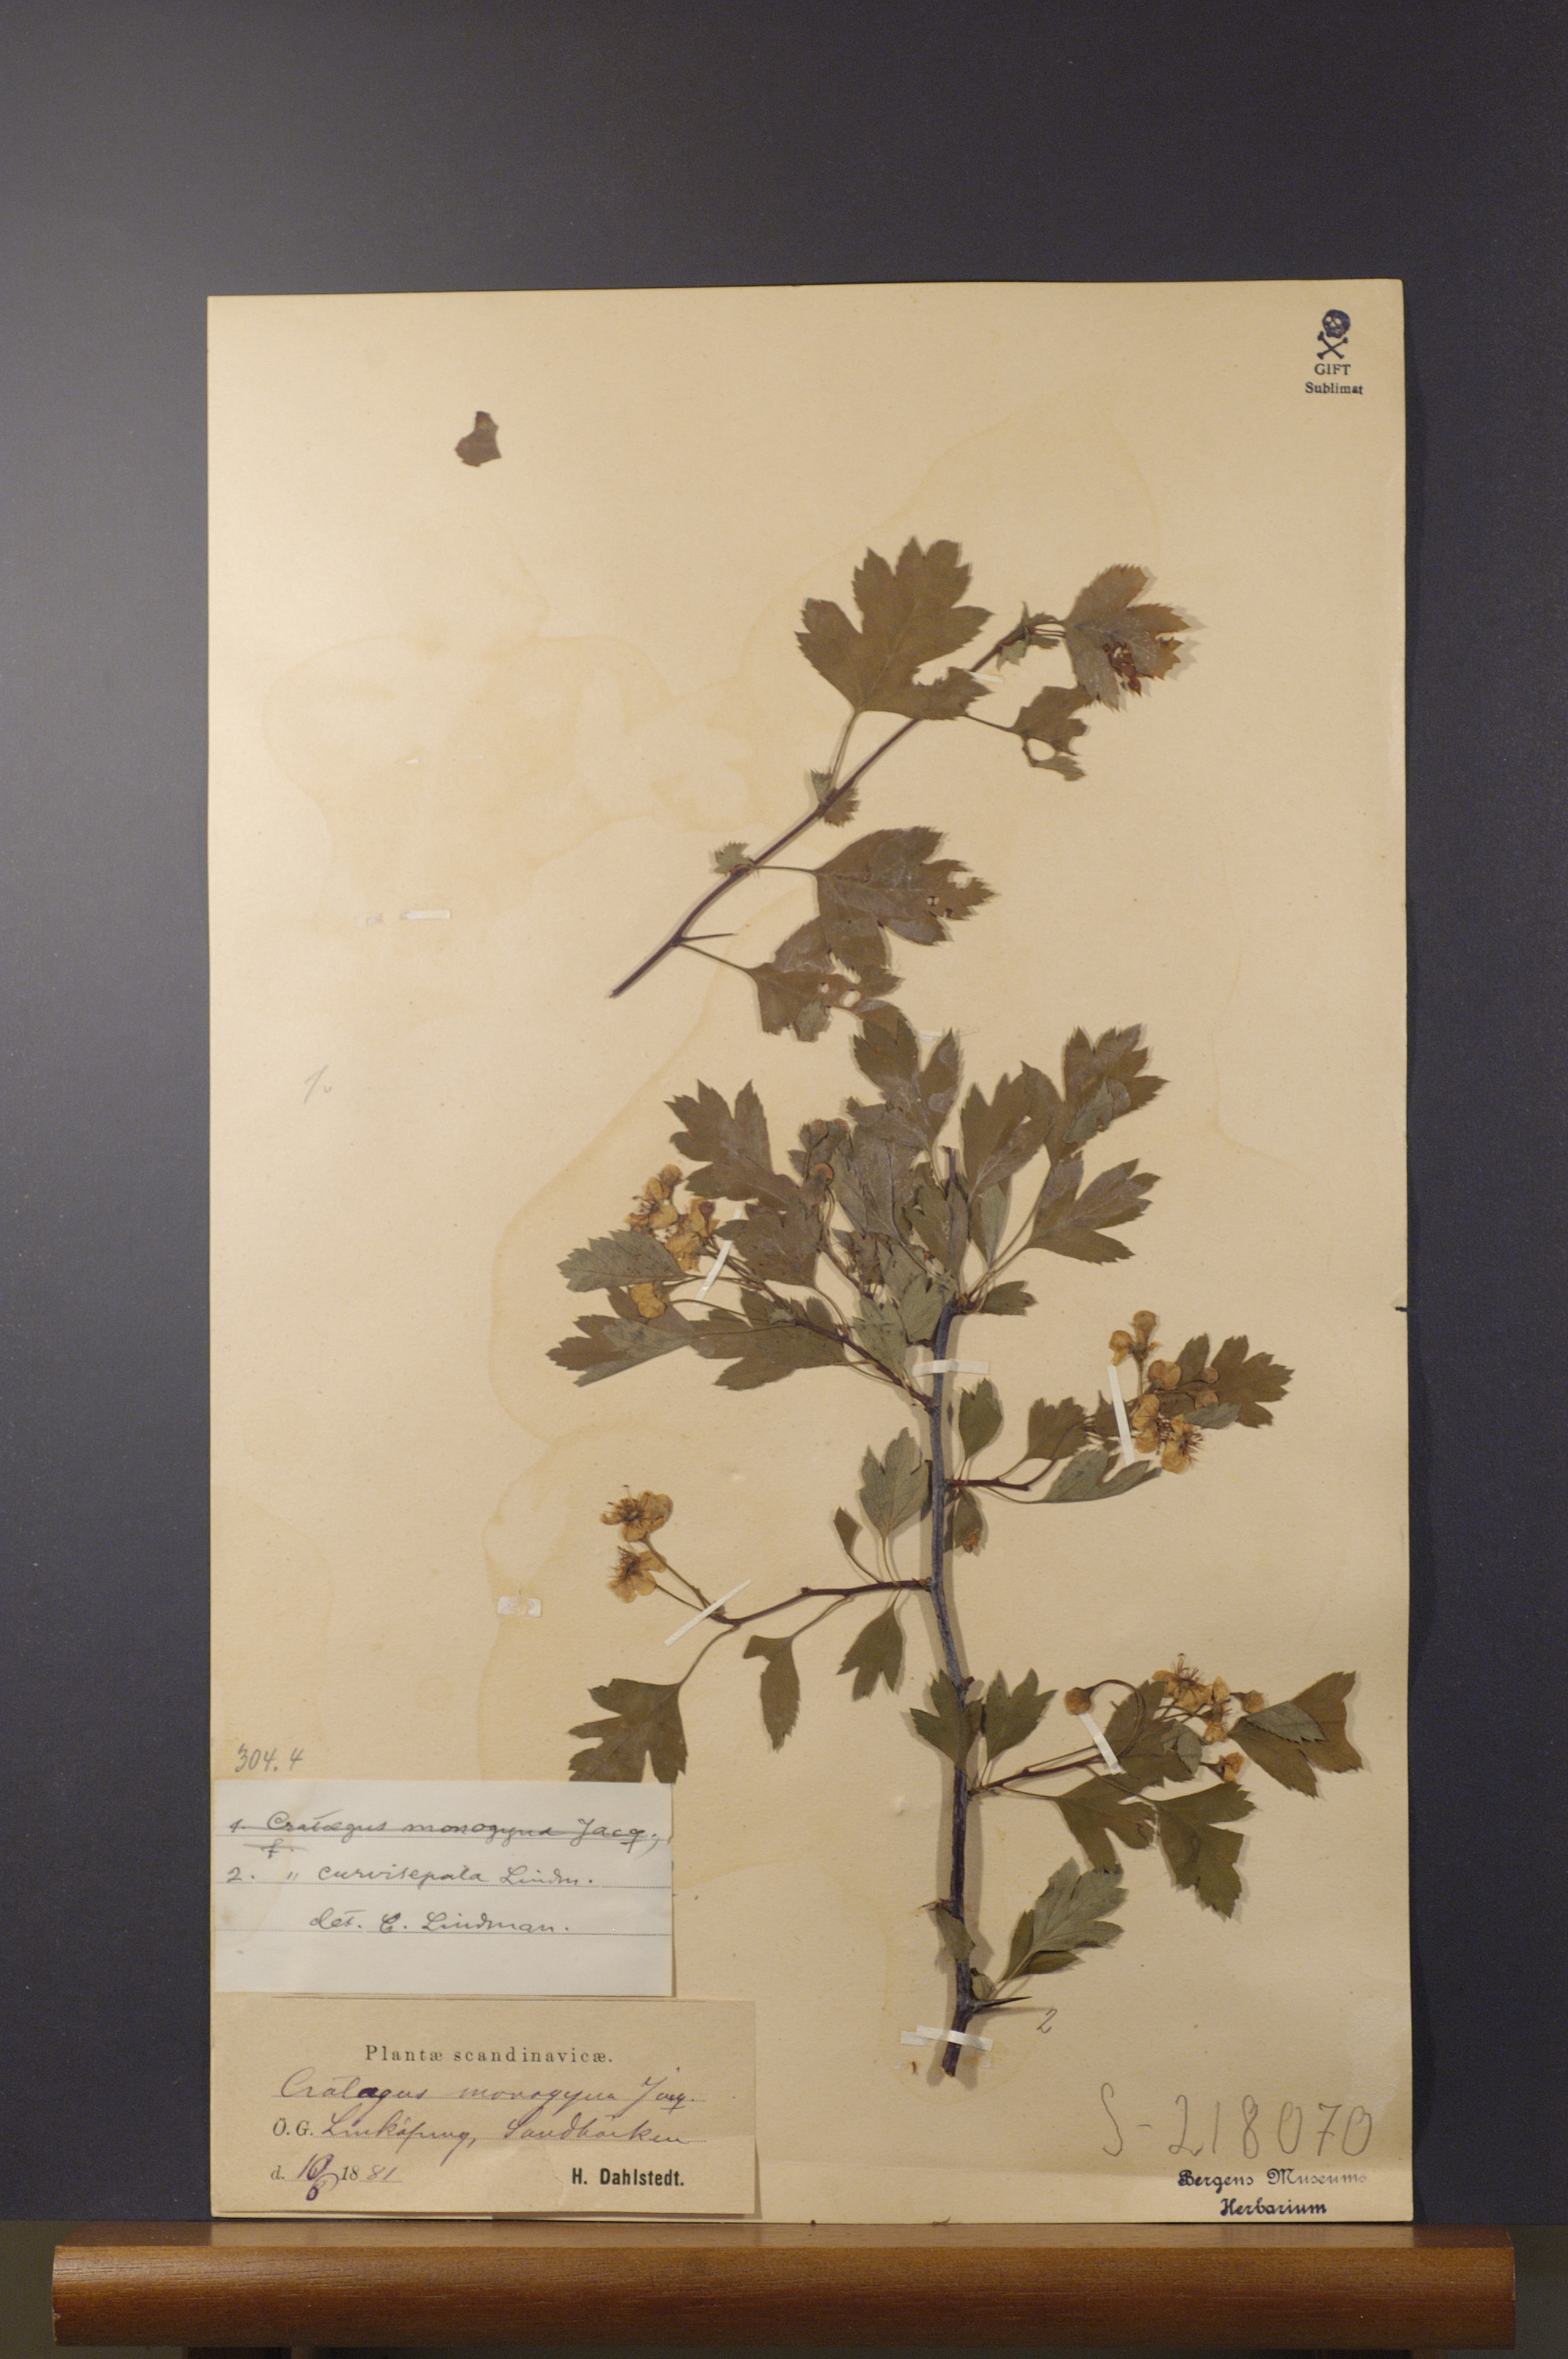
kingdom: Plantae
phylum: Tracheophyta
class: Magnoliopsida
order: Rosales
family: Rosaceae
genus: Crataegus
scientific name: Crataegus rhipidophylla
